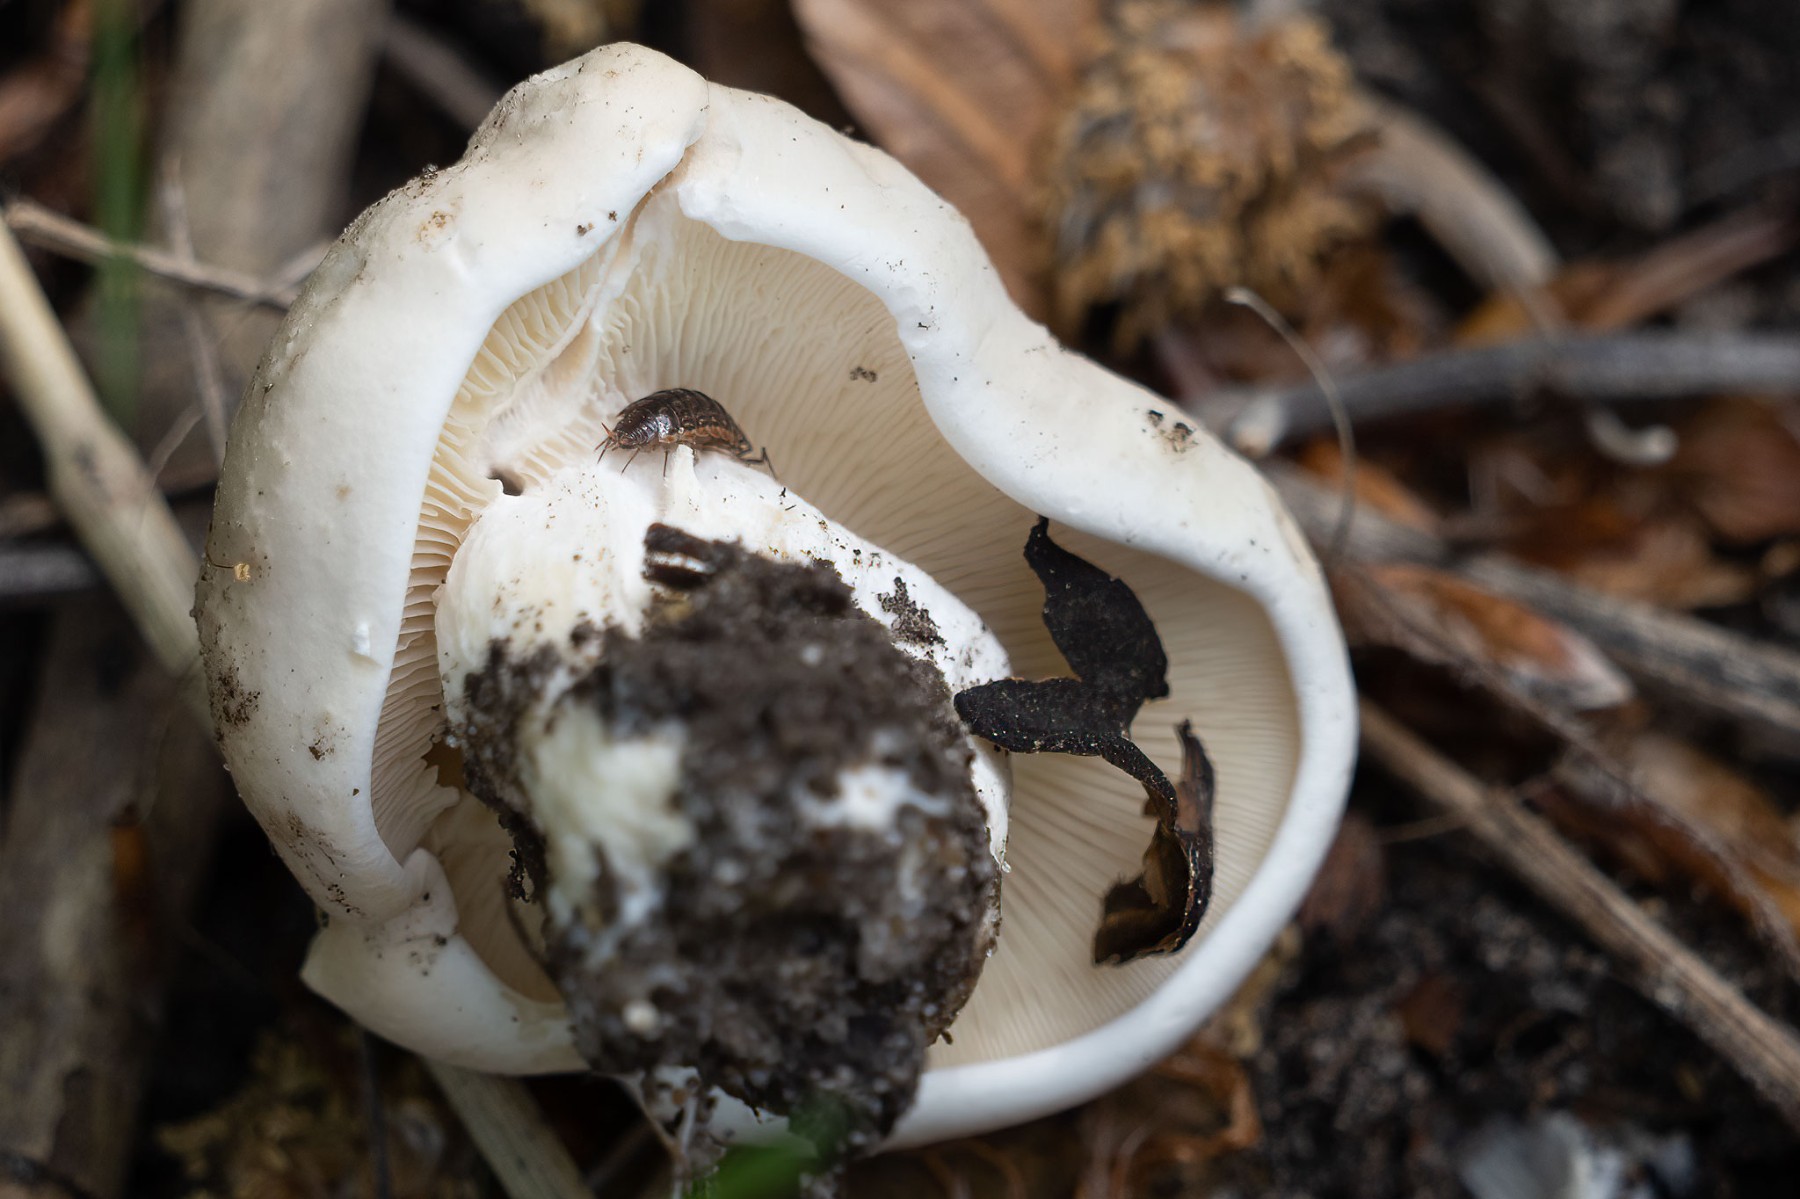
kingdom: Fungi
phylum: Basidiomycota
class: Agaricomycetes
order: Agaricales
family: Lyophyllaceae
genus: Calocybe
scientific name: Calocybe gambosa
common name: vårmusseron
